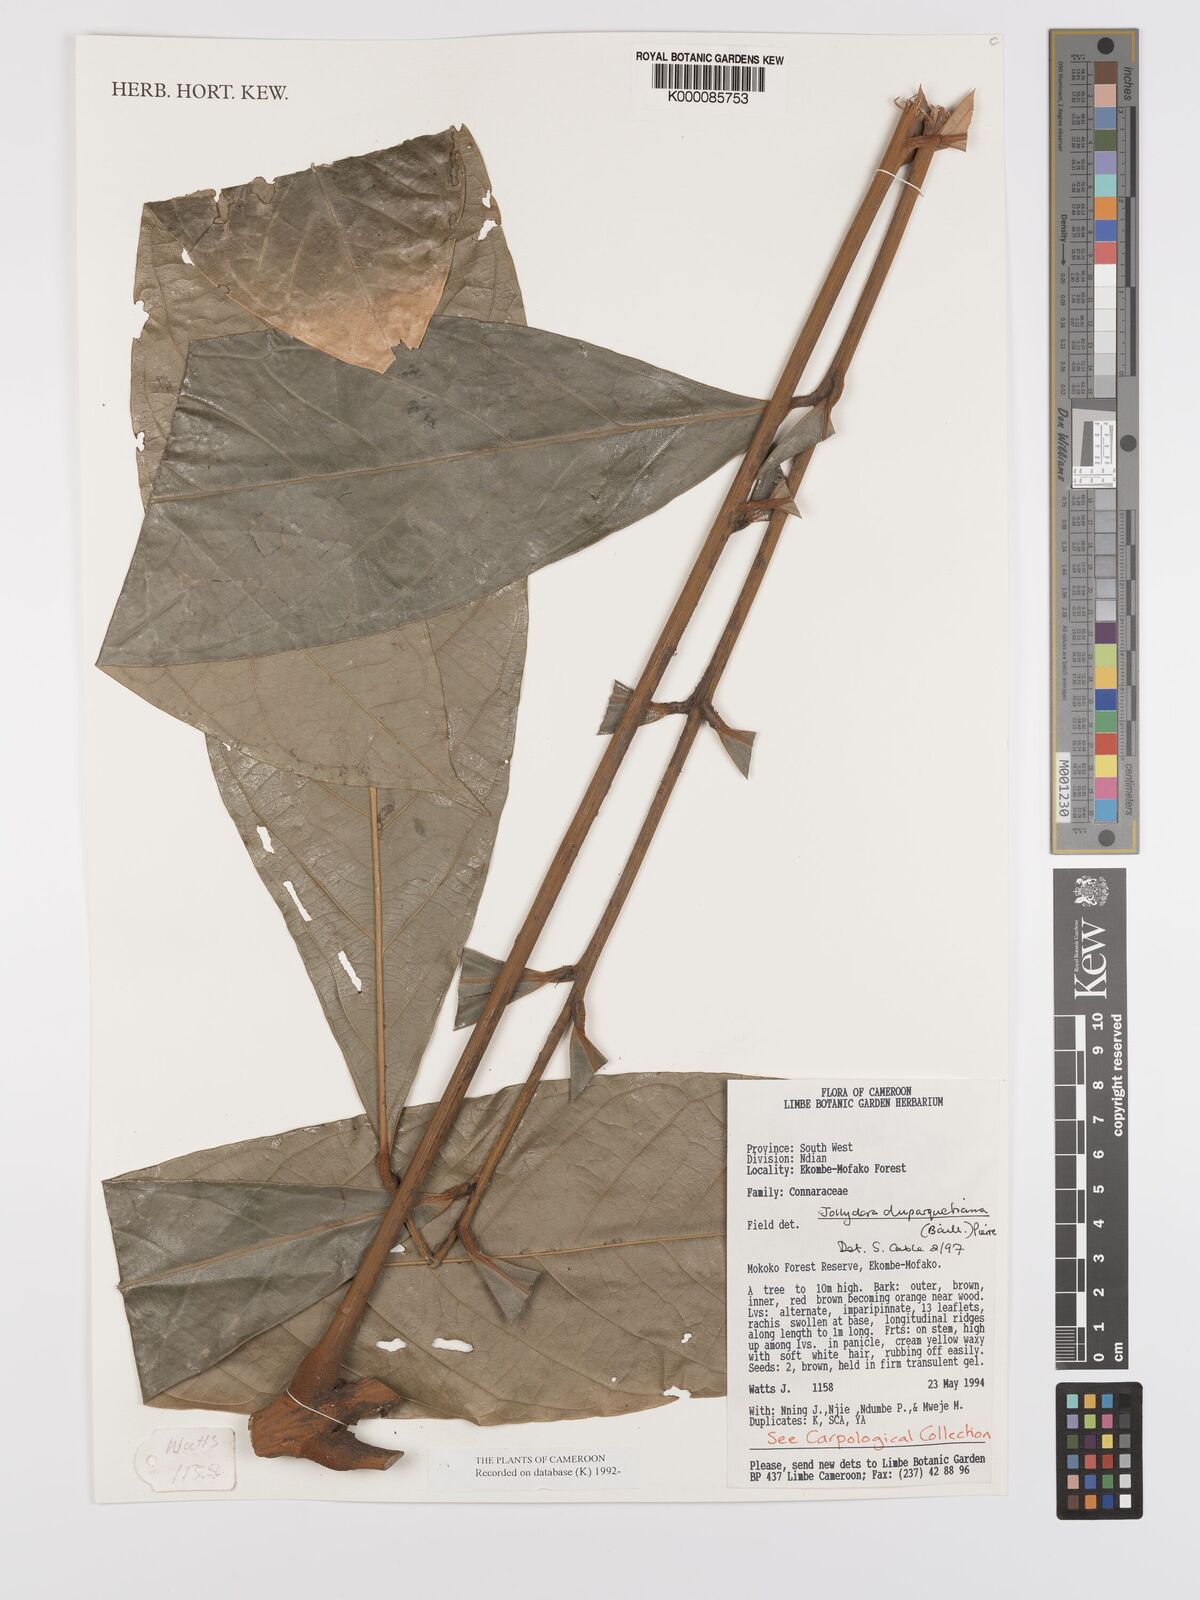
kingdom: Plantae
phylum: Tracheophyta
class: Magnoliopsida
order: Oxalidales
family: Connaraceae
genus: Jollydora
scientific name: Jollydora duparquetiana
